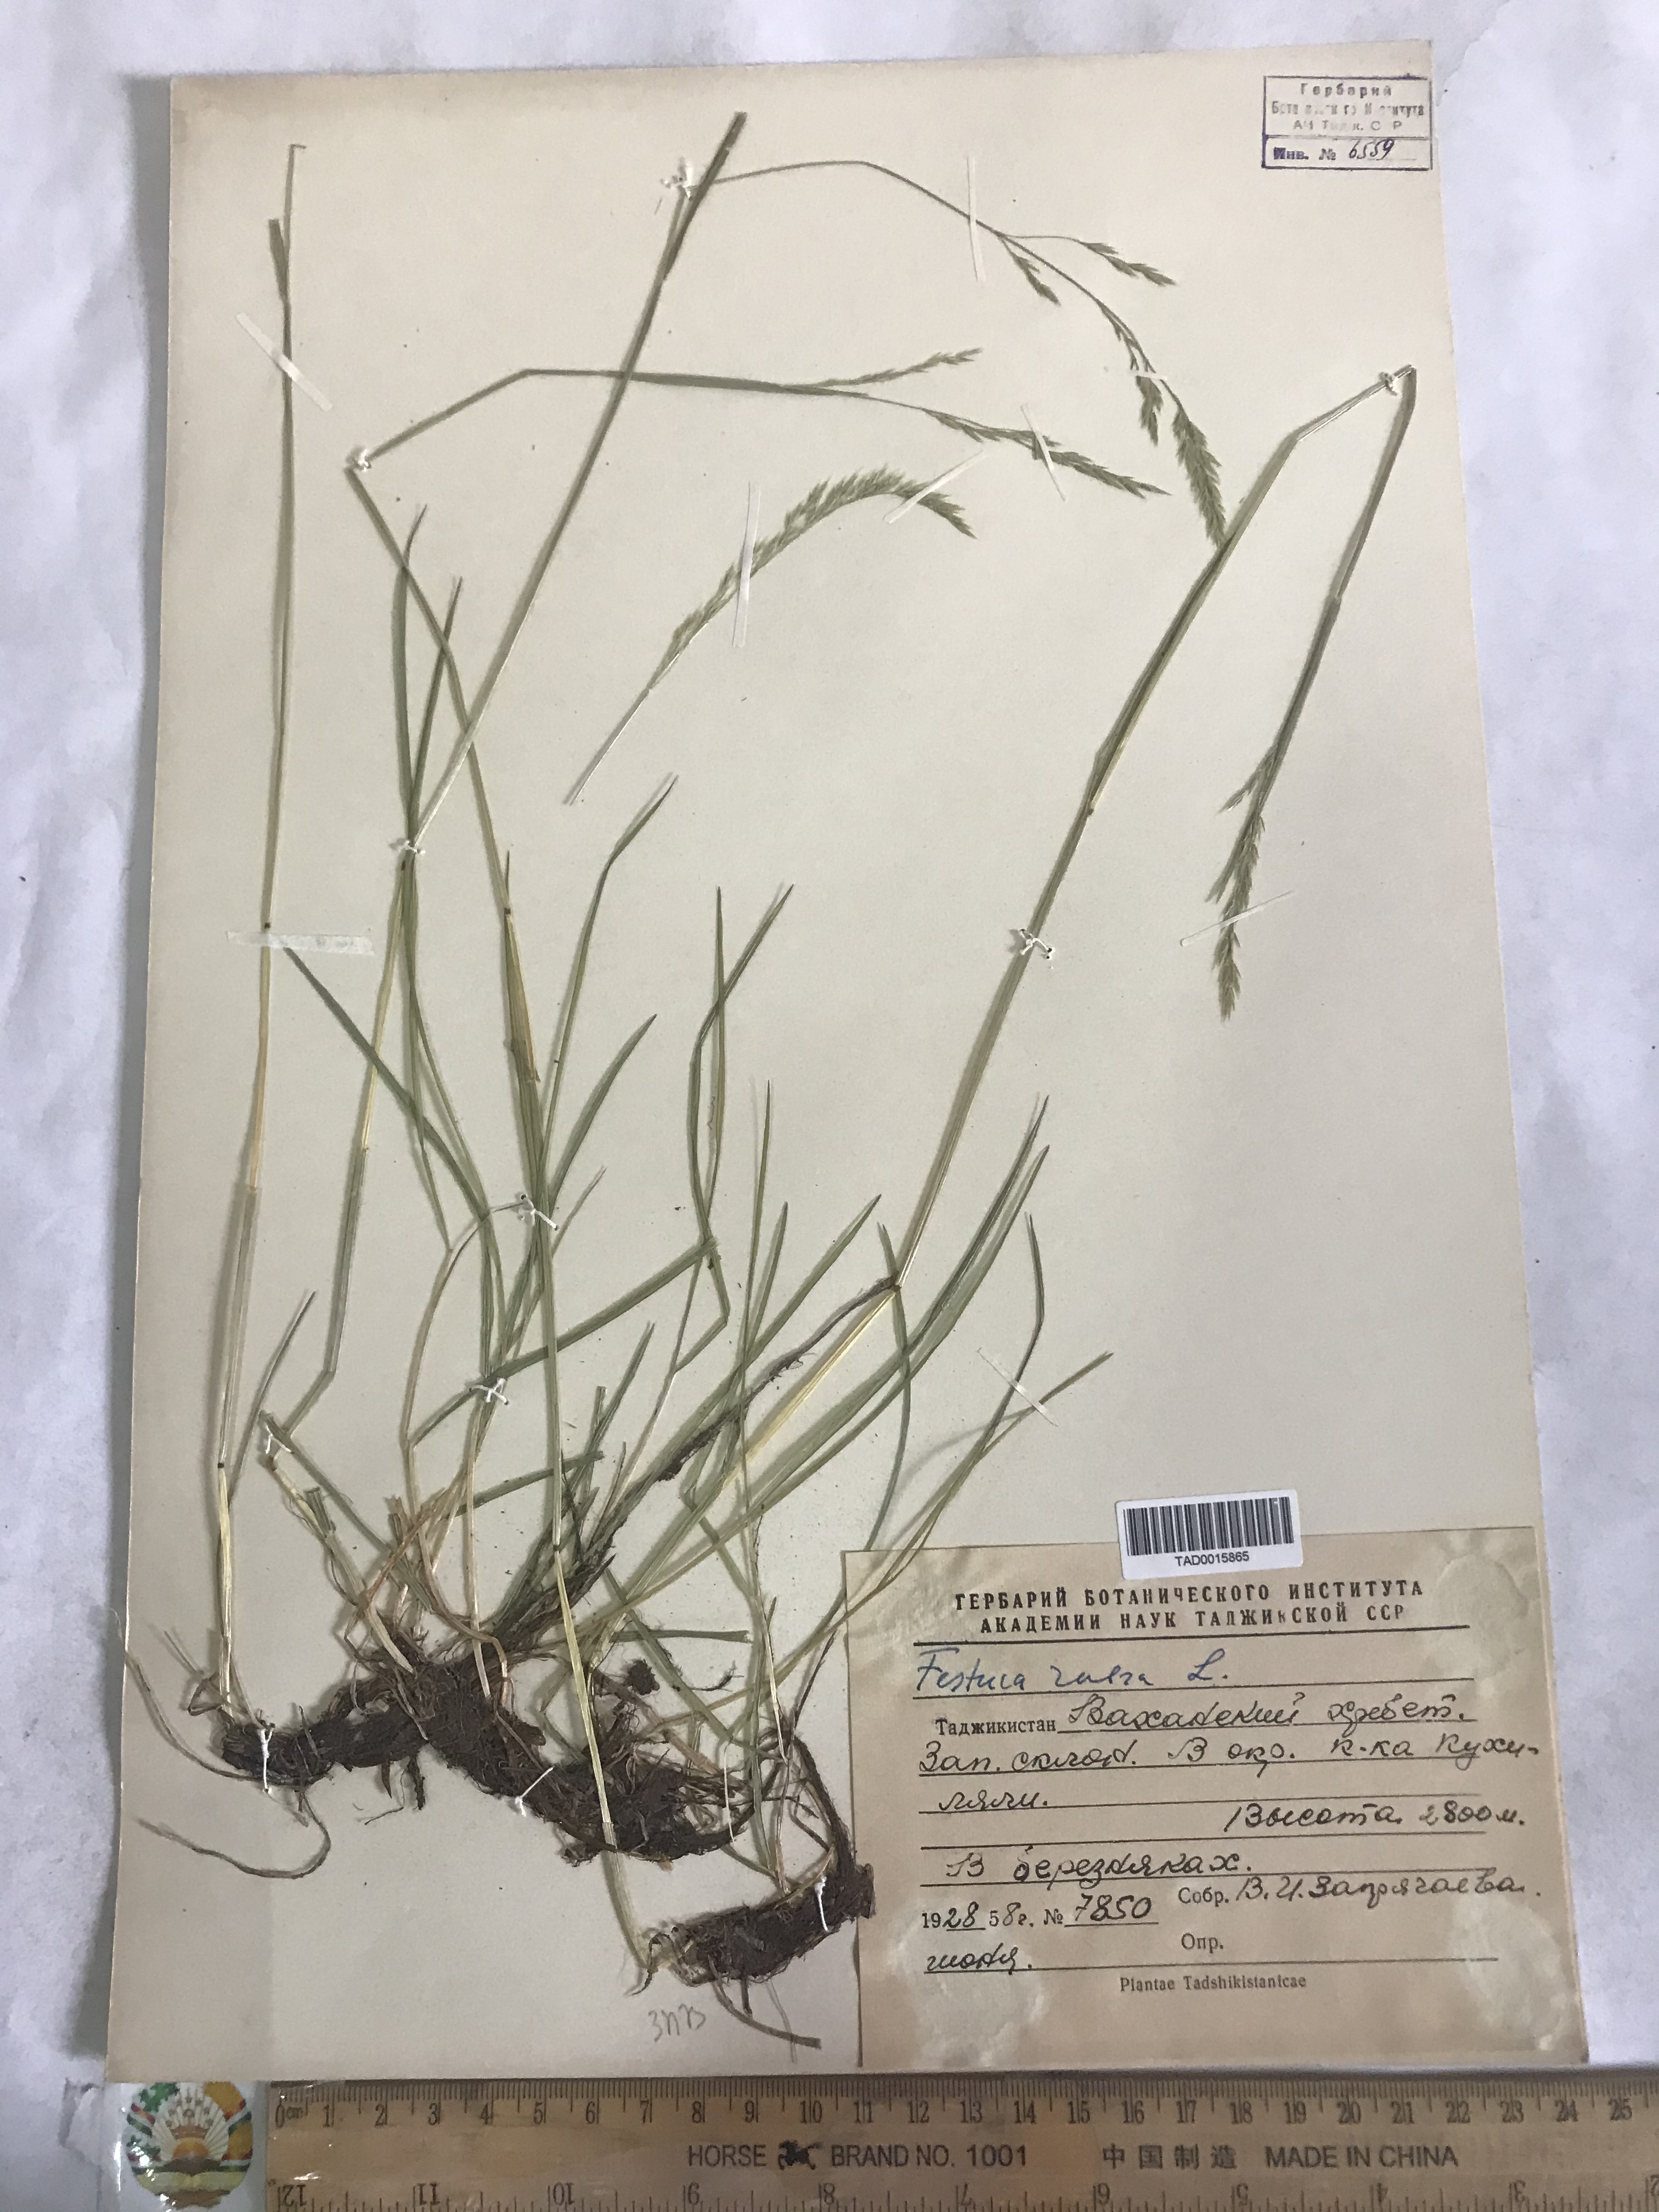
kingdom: Plantae
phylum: Tracheophyta
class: Liliopsida
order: Poales
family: Poaceae
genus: Festuca
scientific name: Festuca rubra
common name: Red fescue
